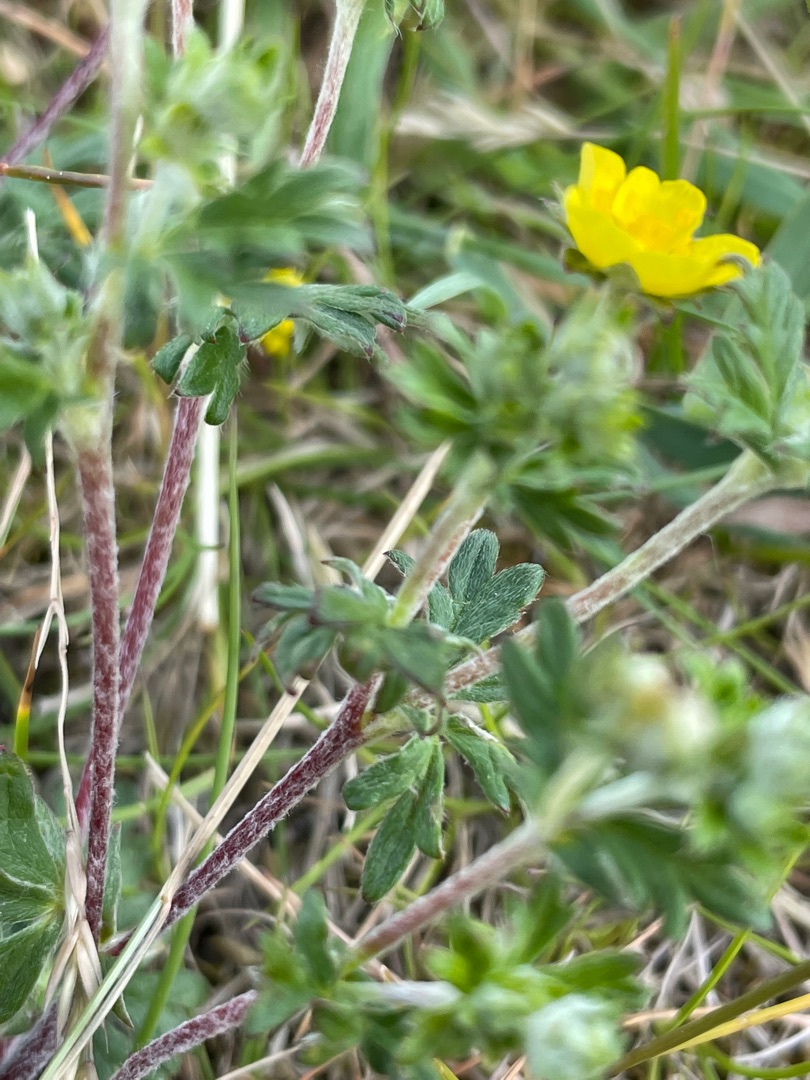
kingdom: Plantae
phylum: Tracheophyta
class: Magnoliopsida
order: Rosales
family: Rosaceae
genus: Potentilla
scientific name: Potentilla argentea
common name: Sølv-potentil
